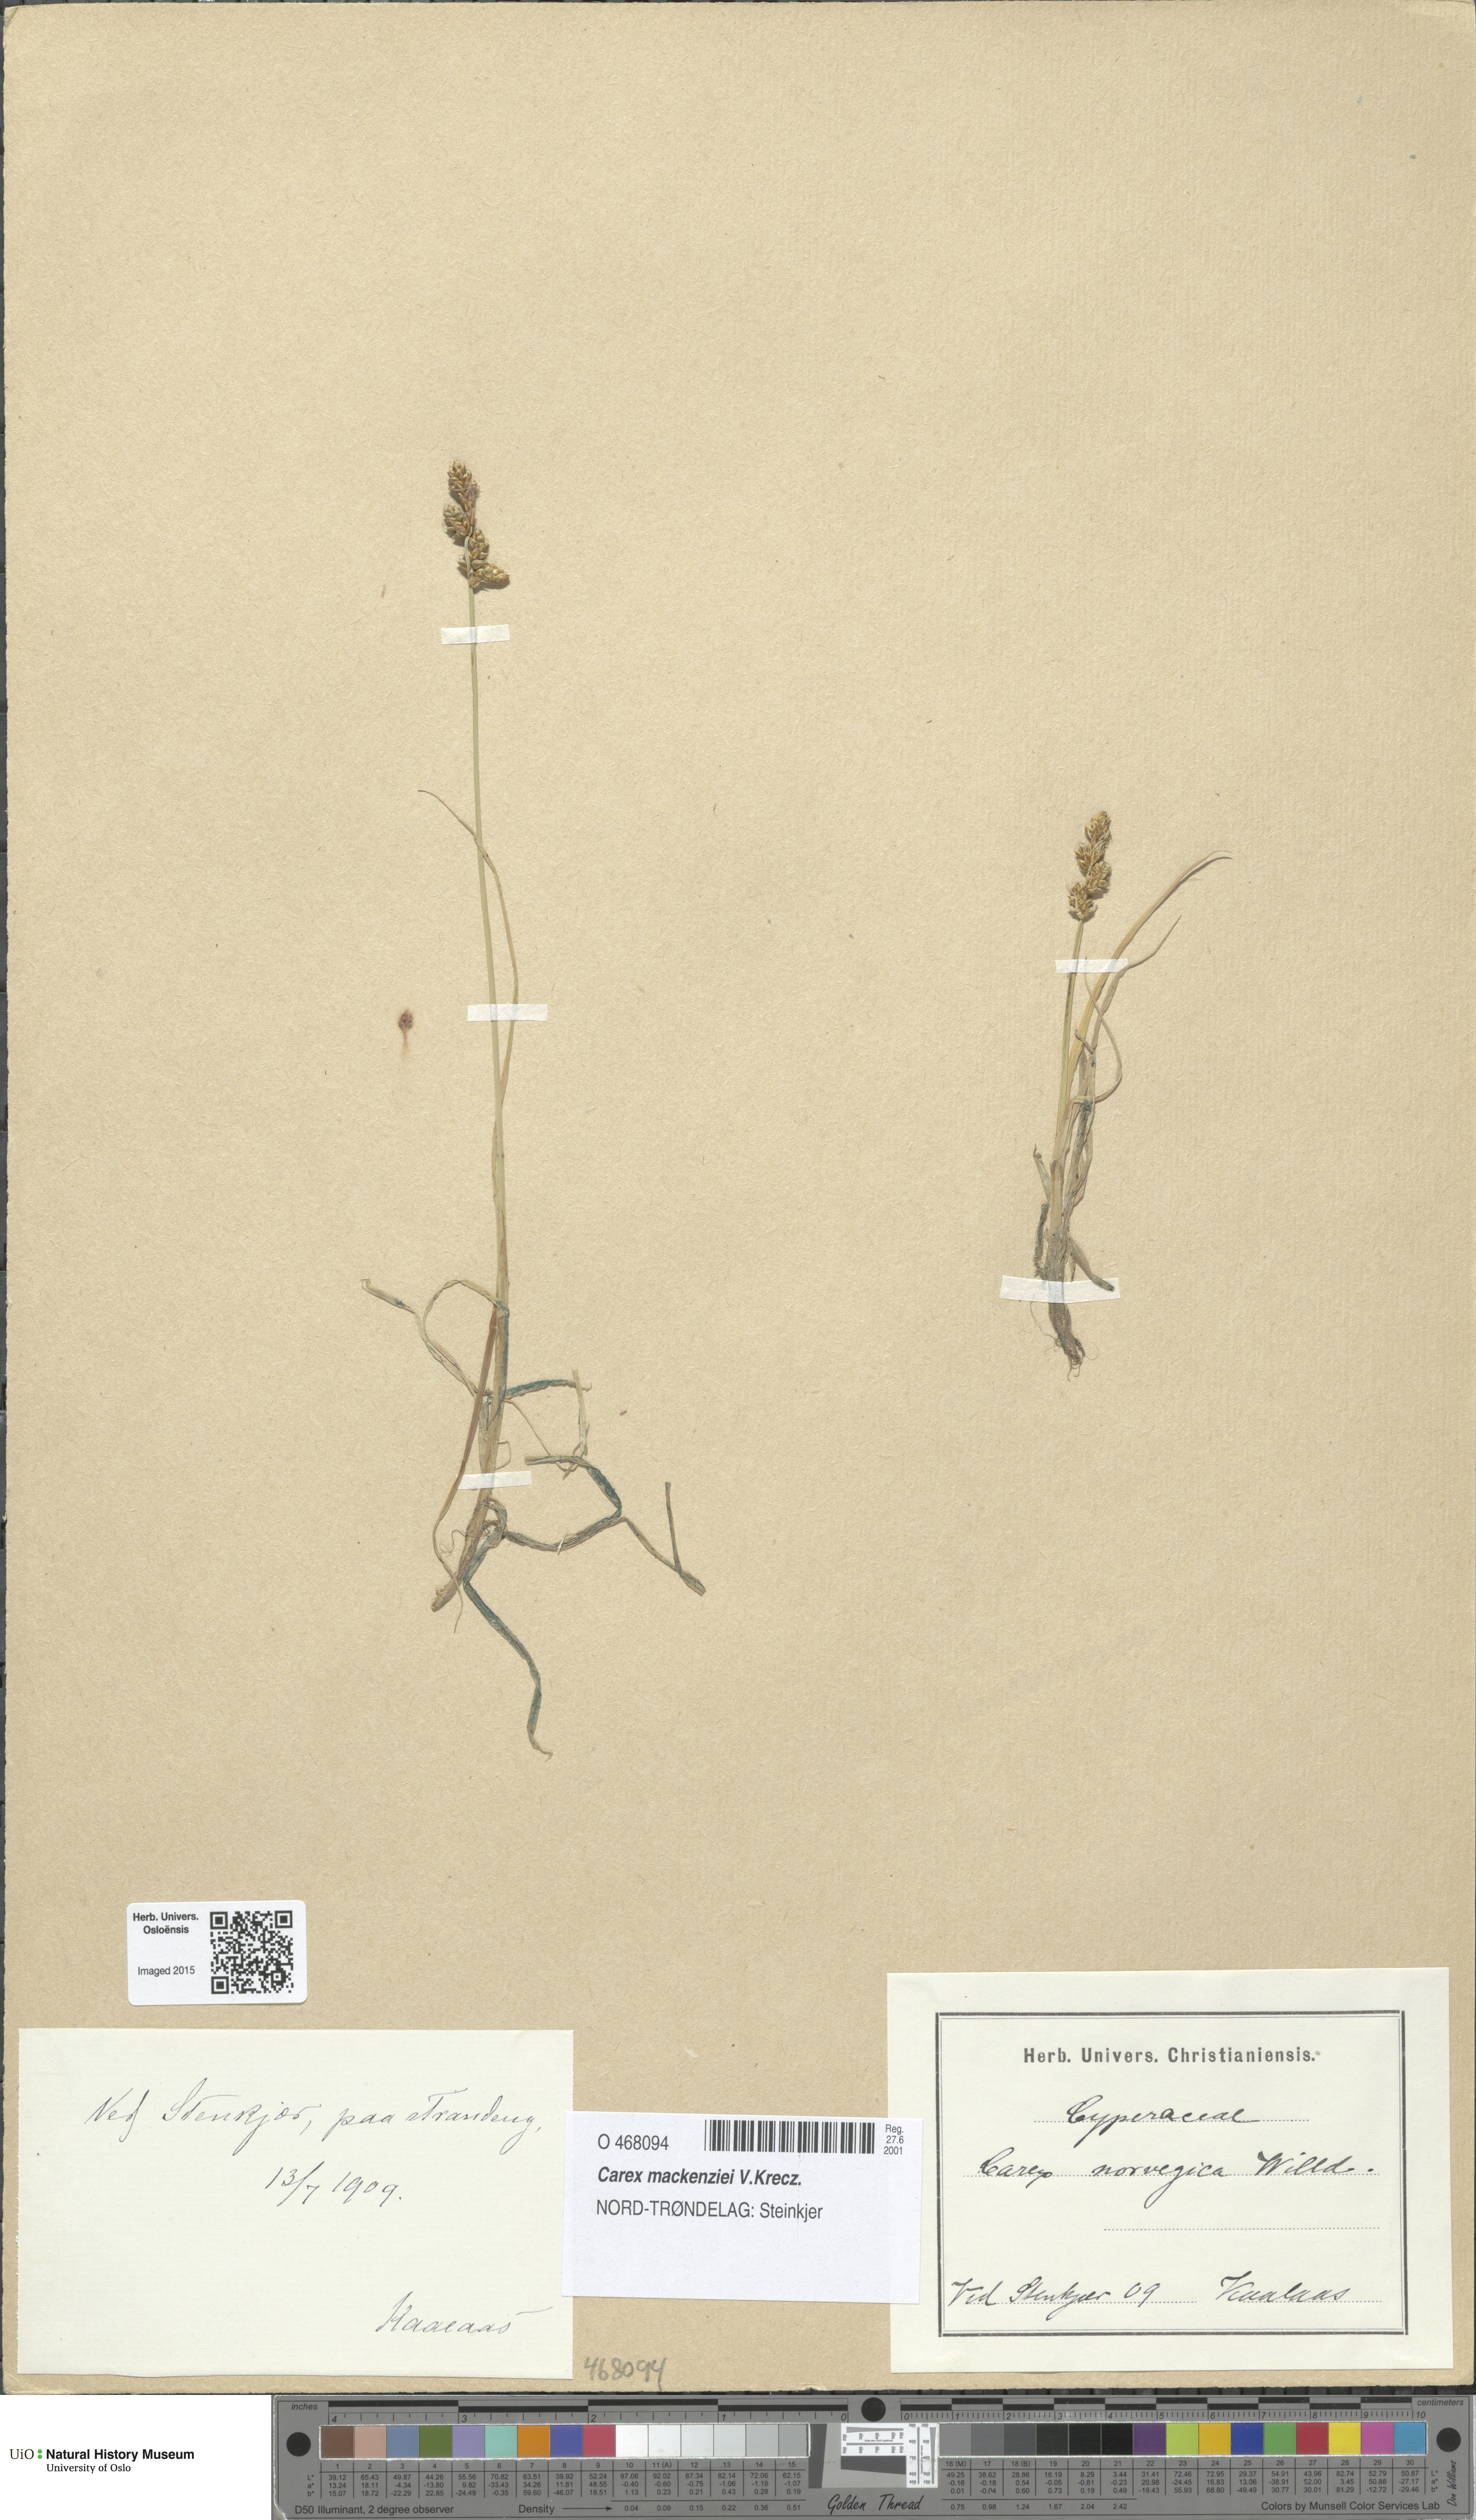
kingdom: Plantae
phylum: Tracheophyta
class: Liliopsida
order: Poales
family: Cyperaceae
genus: Carex
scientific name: Carex mackenziei
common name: Mackenzie's sedge
